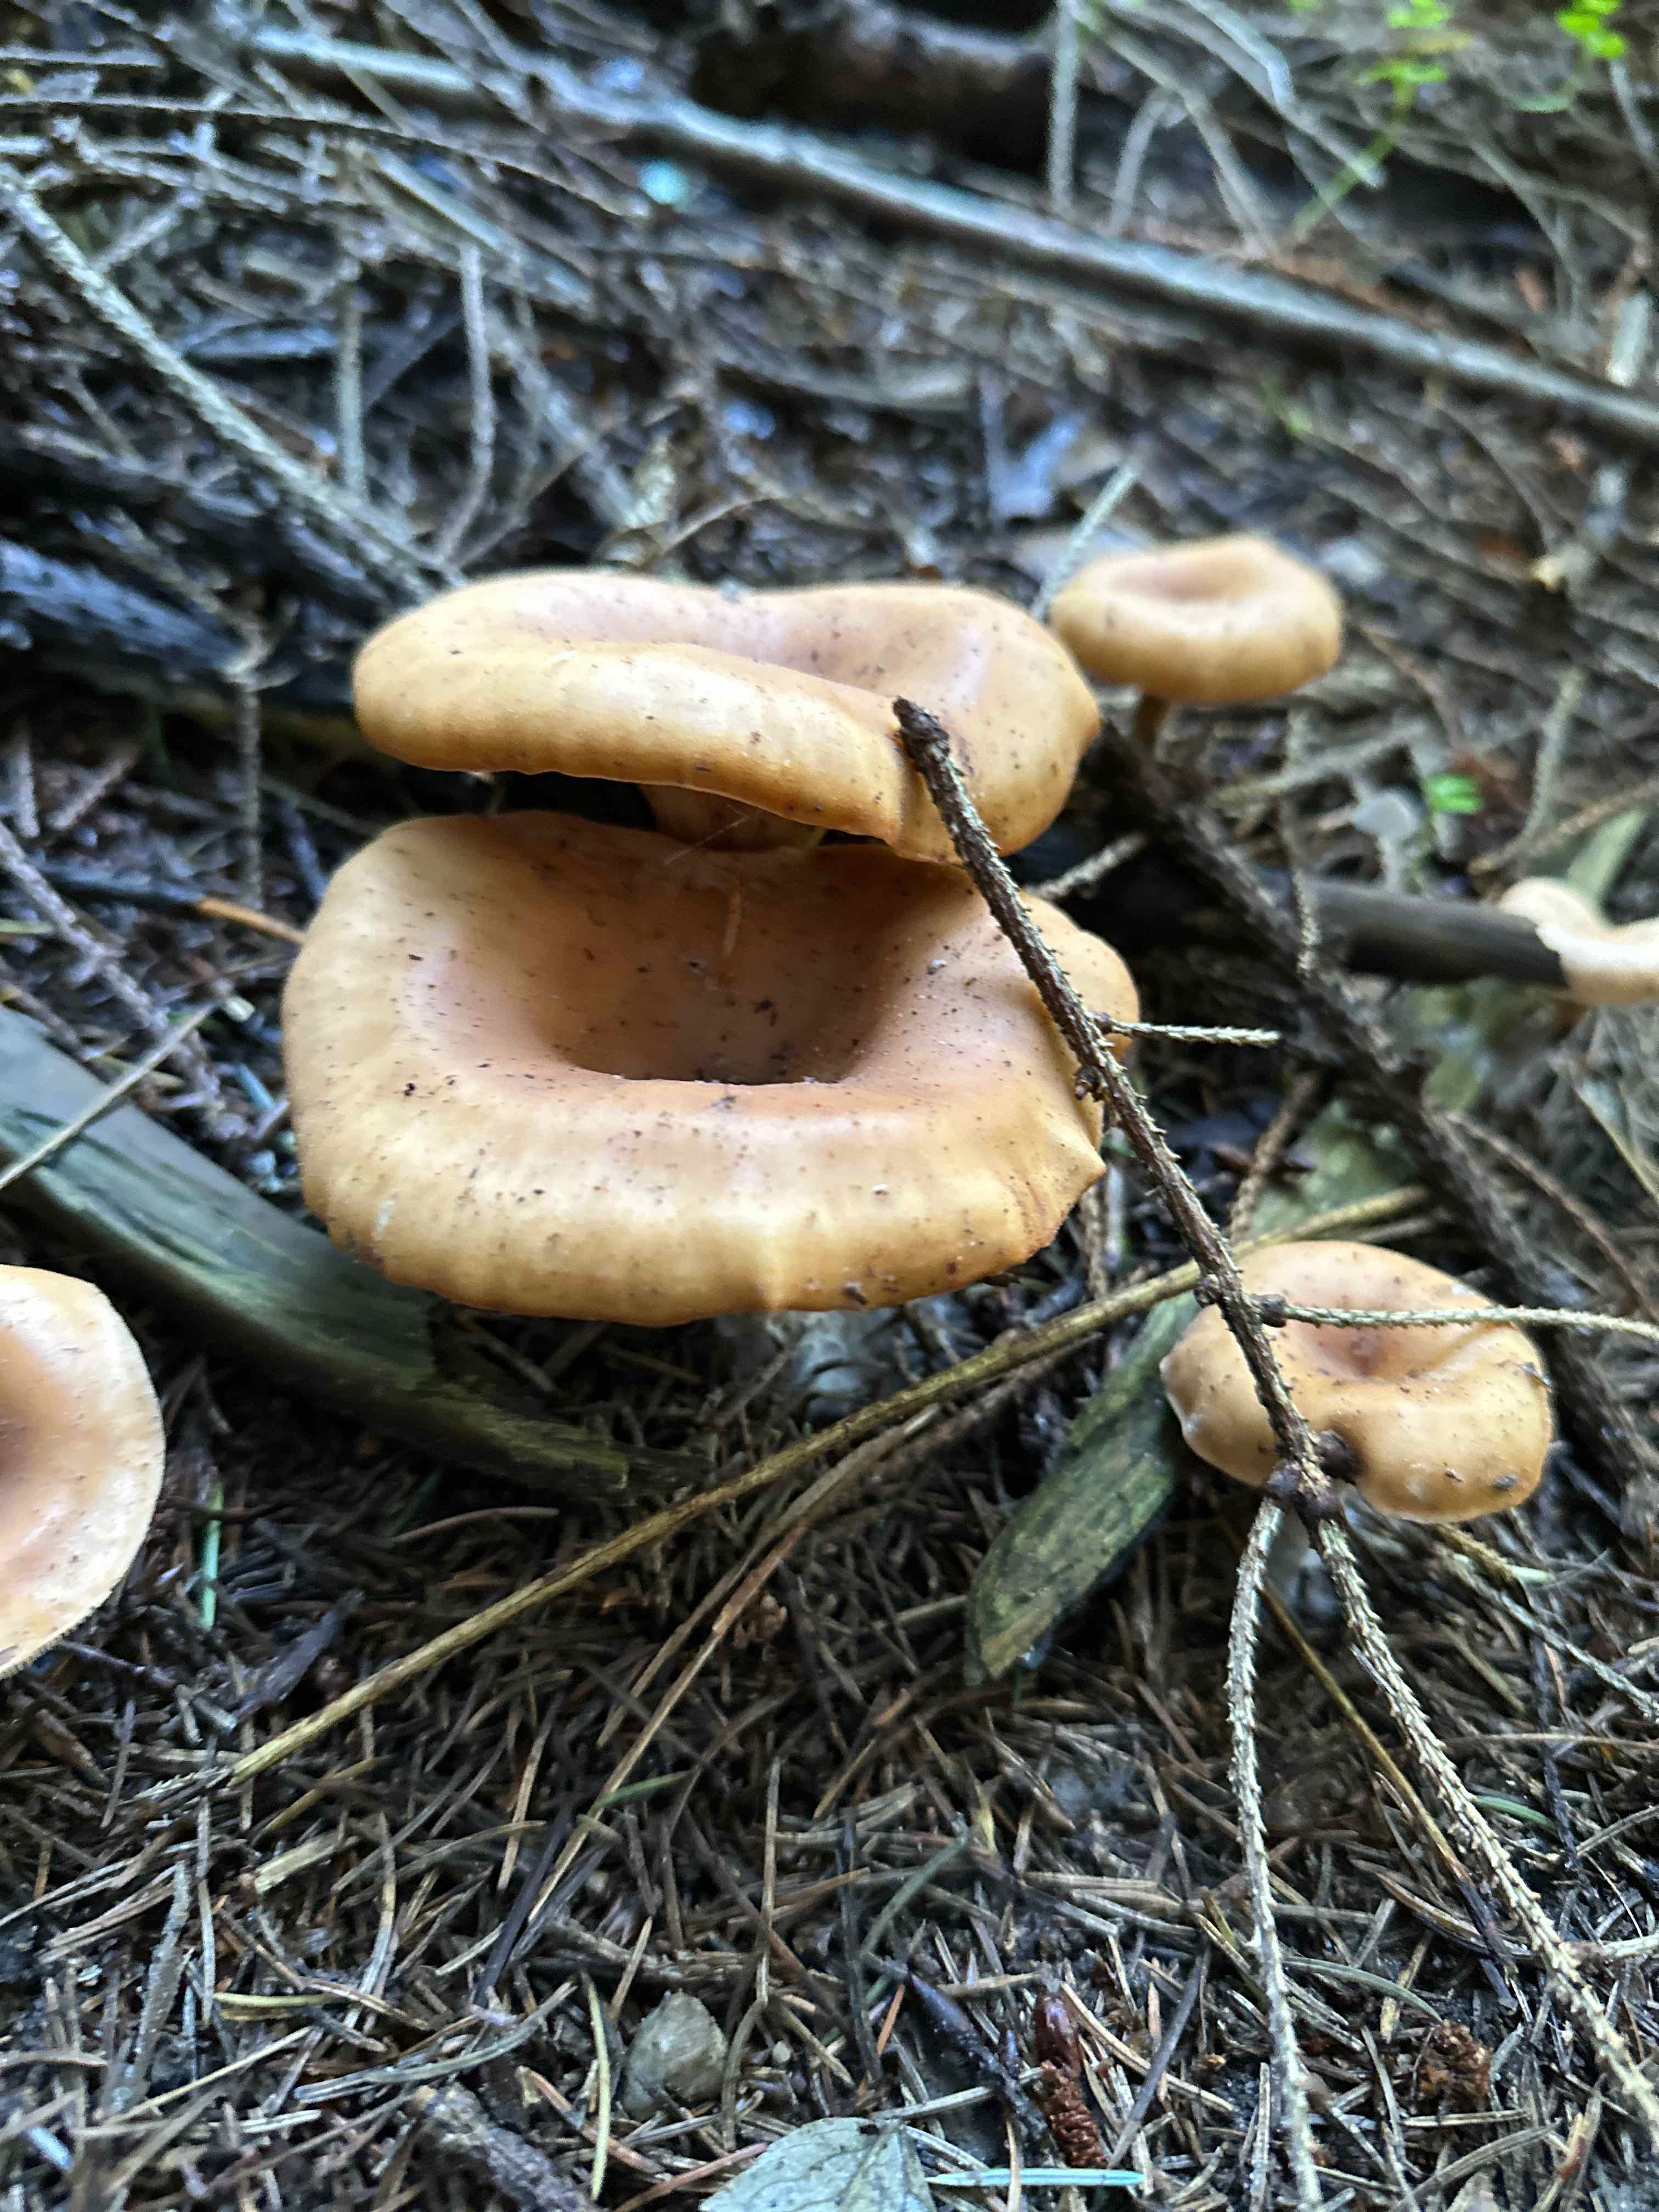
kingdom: Fungi
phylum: Basidiomycota
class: Agaricomycetes
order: Agaricales
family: Tricholomataceae
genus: Paralepista
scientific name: Paralepista flaccida
